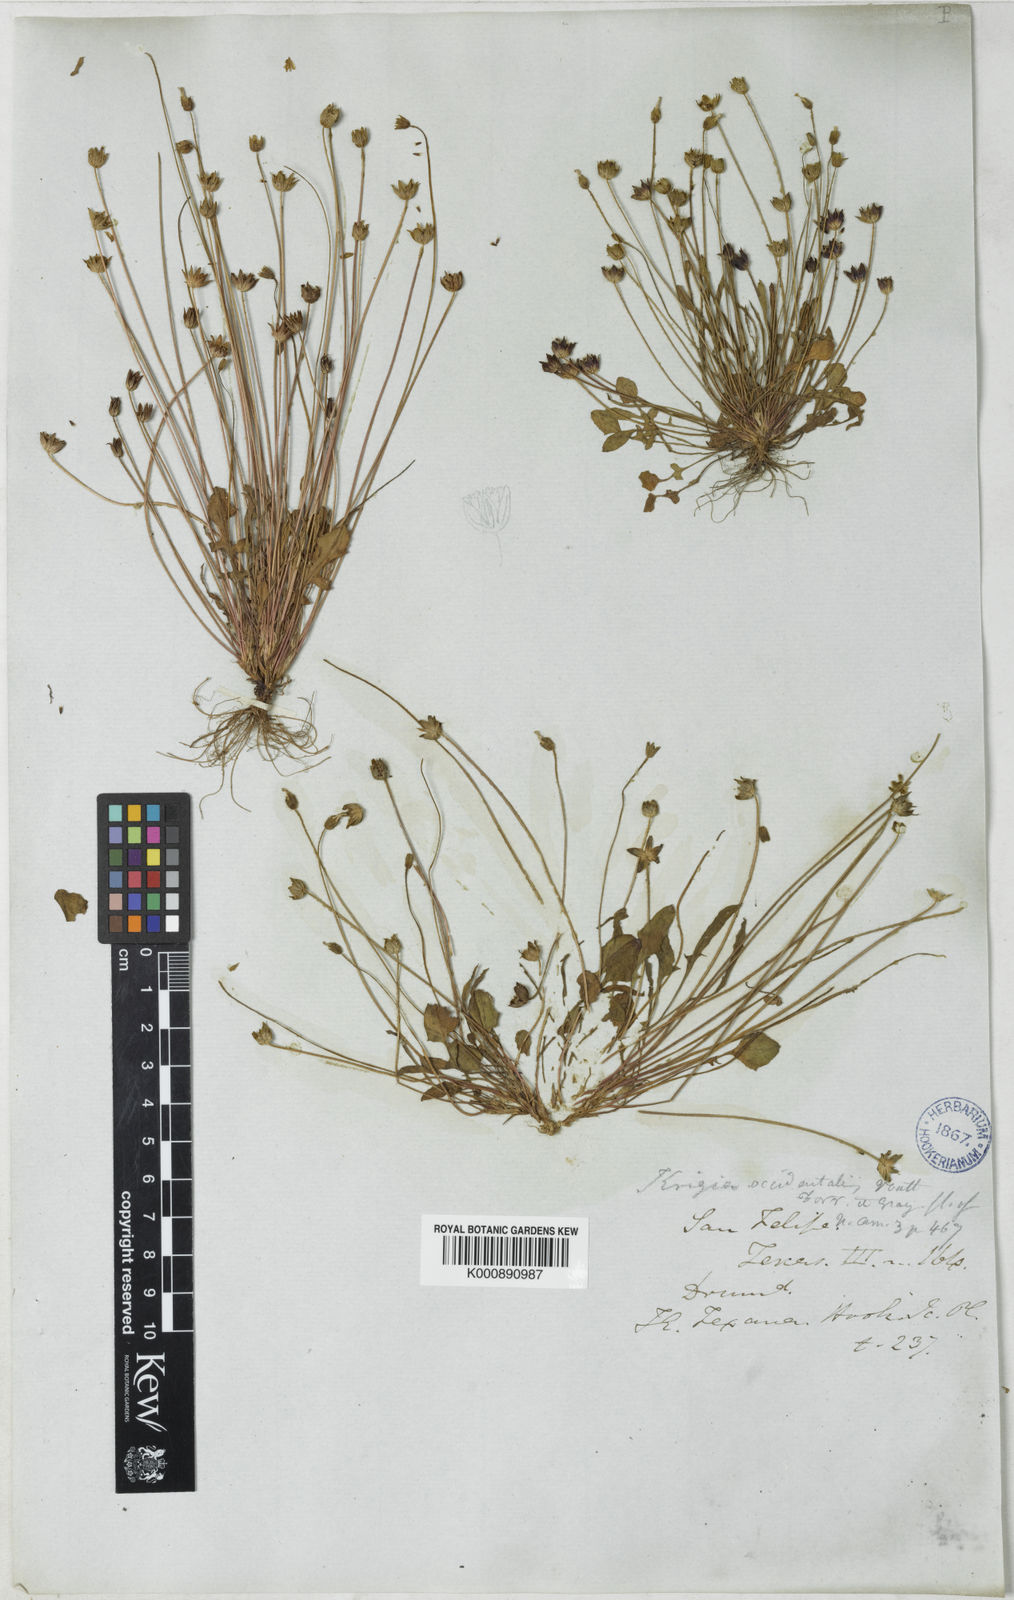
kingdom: Plantae
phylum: Tracheophyta
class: Magnoliopsida
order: Asterales
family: Asteraceae
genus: Krigia
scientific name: Krigia occidentalis
